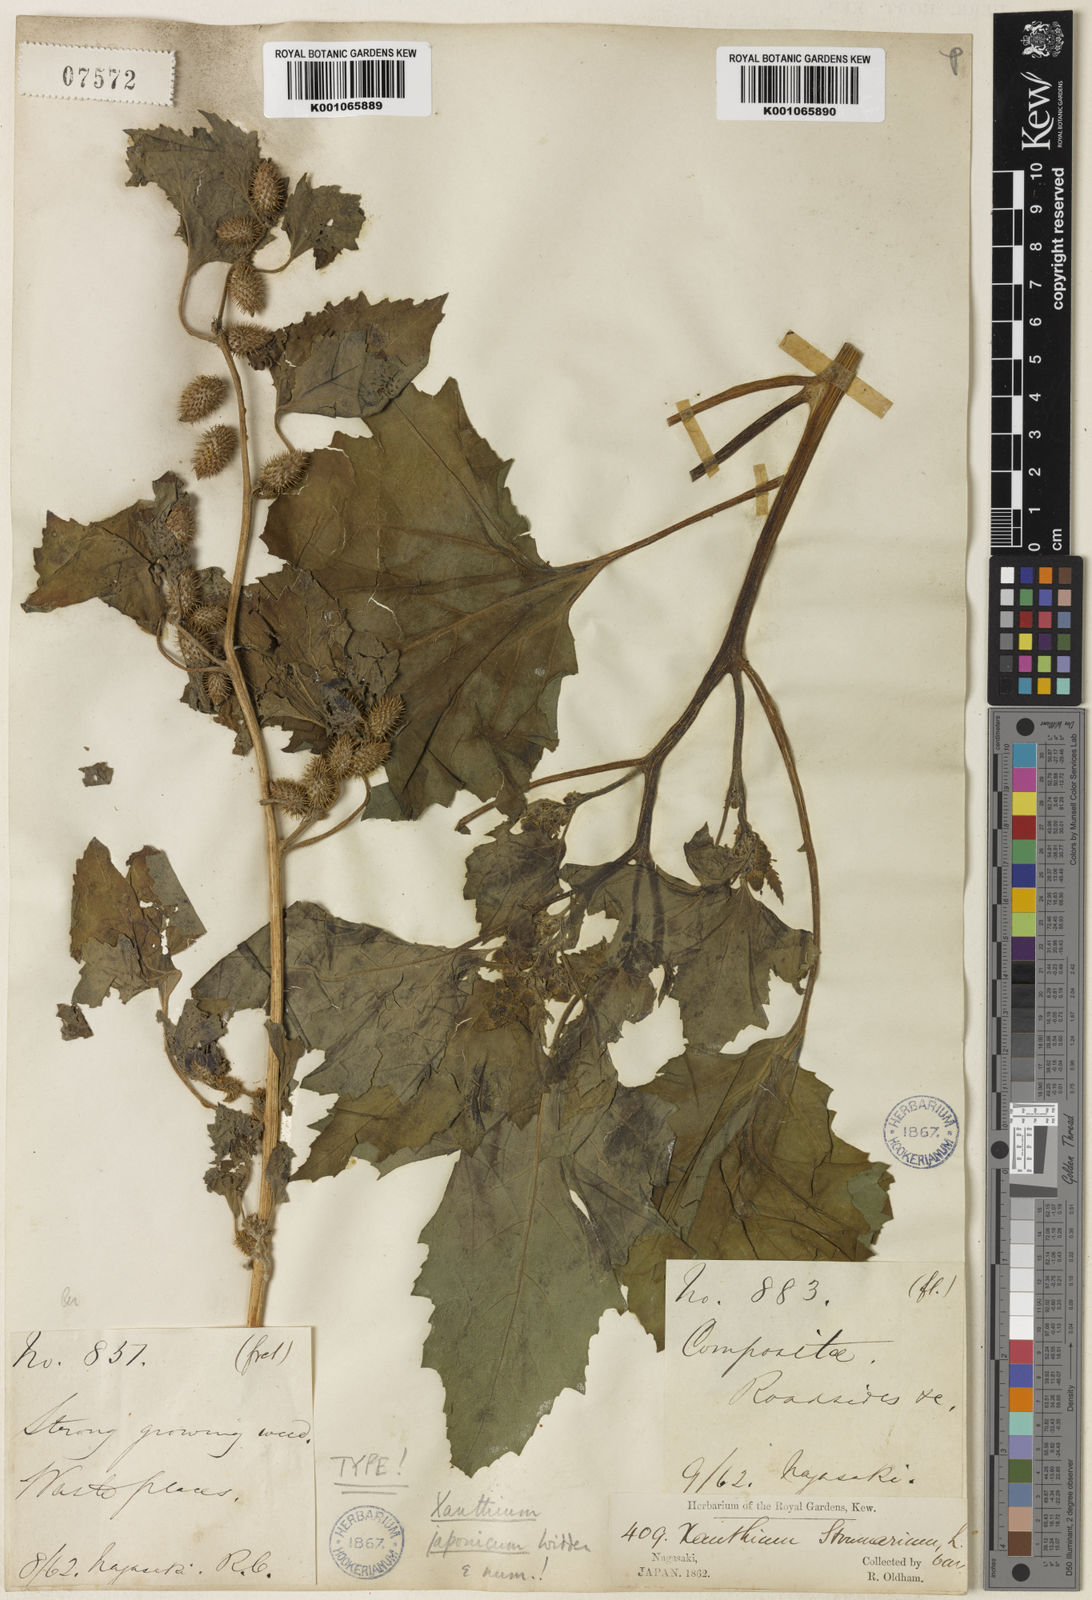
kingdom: Plantae
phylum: Tracheophyta
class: Magnoliopsida
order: Asterales
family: Asteraceae
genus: Xanthium
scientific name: Xanthium strumarium
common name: Rough cocklebur
